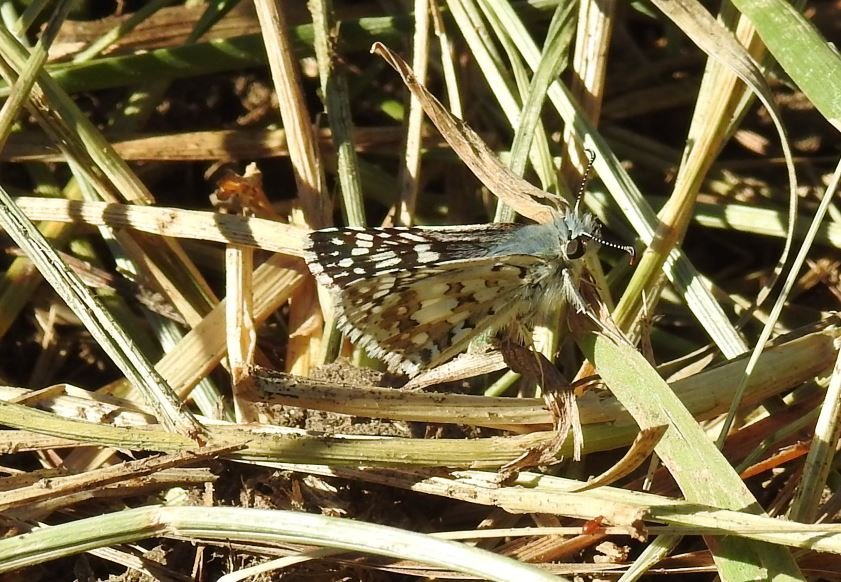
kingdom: Animalia
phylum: Arthropoda
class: Insecta
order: Lepidoptera
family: Hesperiidae
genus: Pyrgus
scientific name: Pyrgus communis
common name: Common Checkered-Skipper
